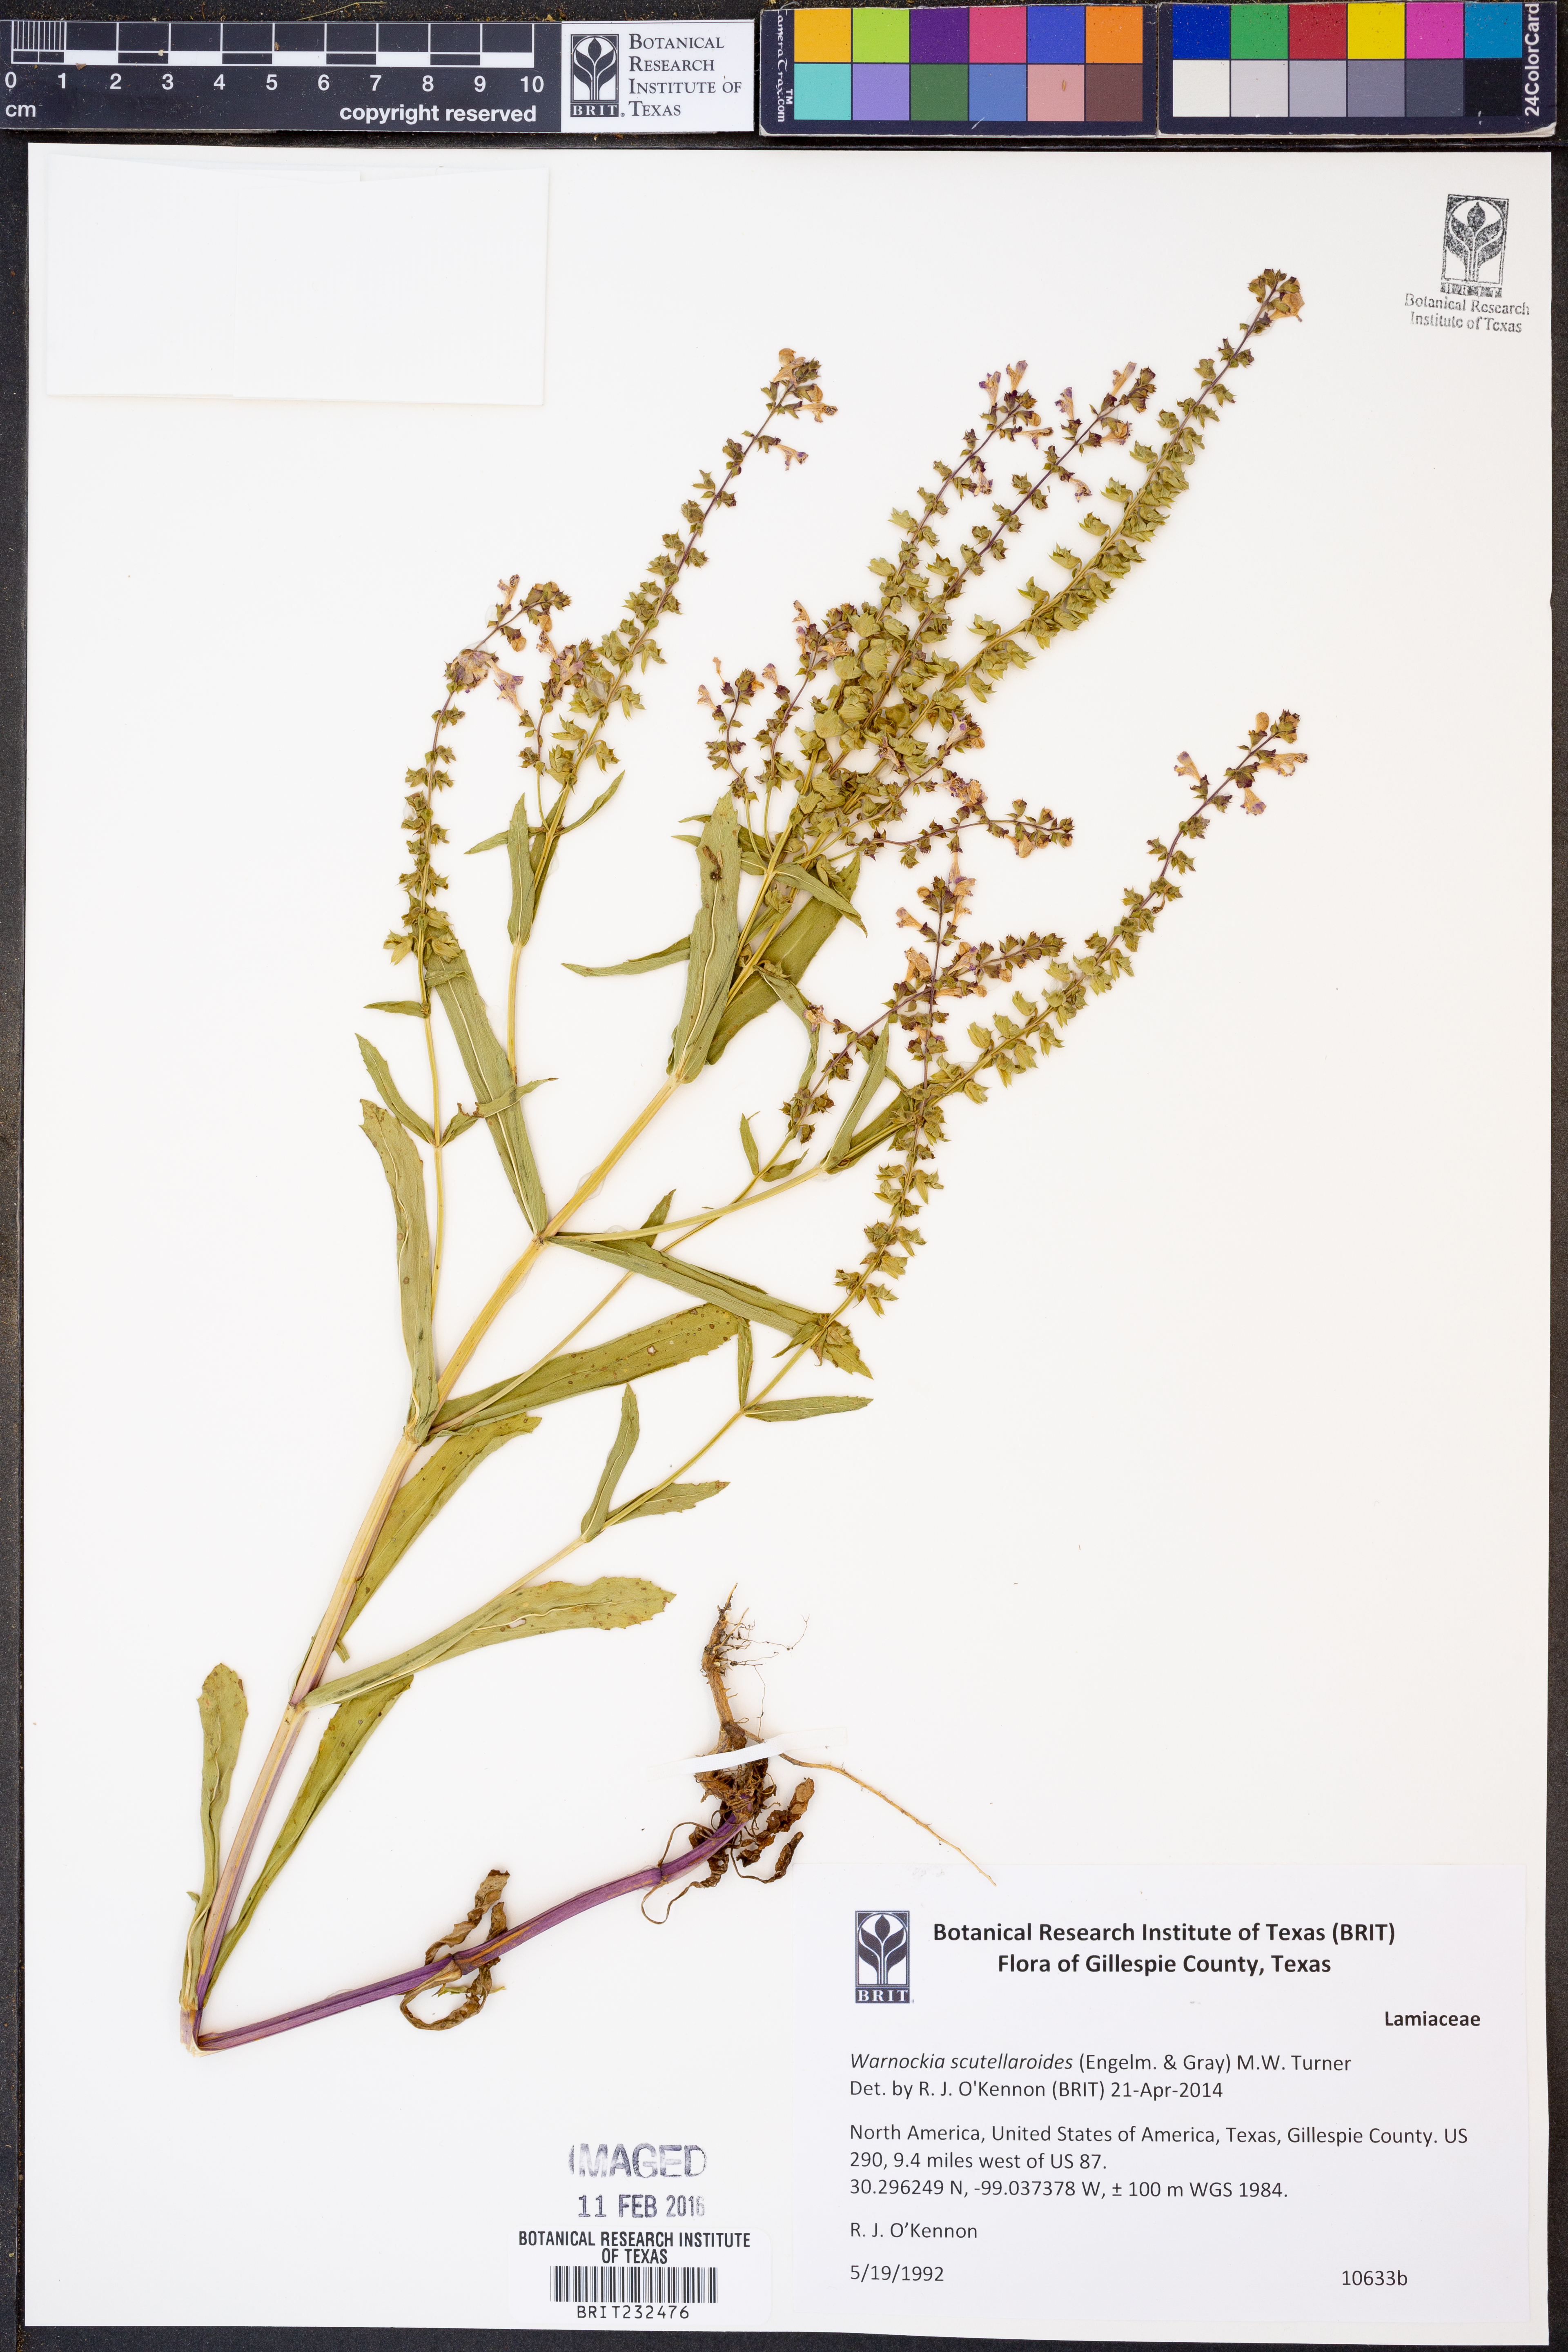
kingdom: Plantae
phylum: Tracheophyta
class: Magnoliopsida
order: Lamiales
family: Lamiaceae
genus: Warnockia
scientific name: Warnockia scutellarioides
